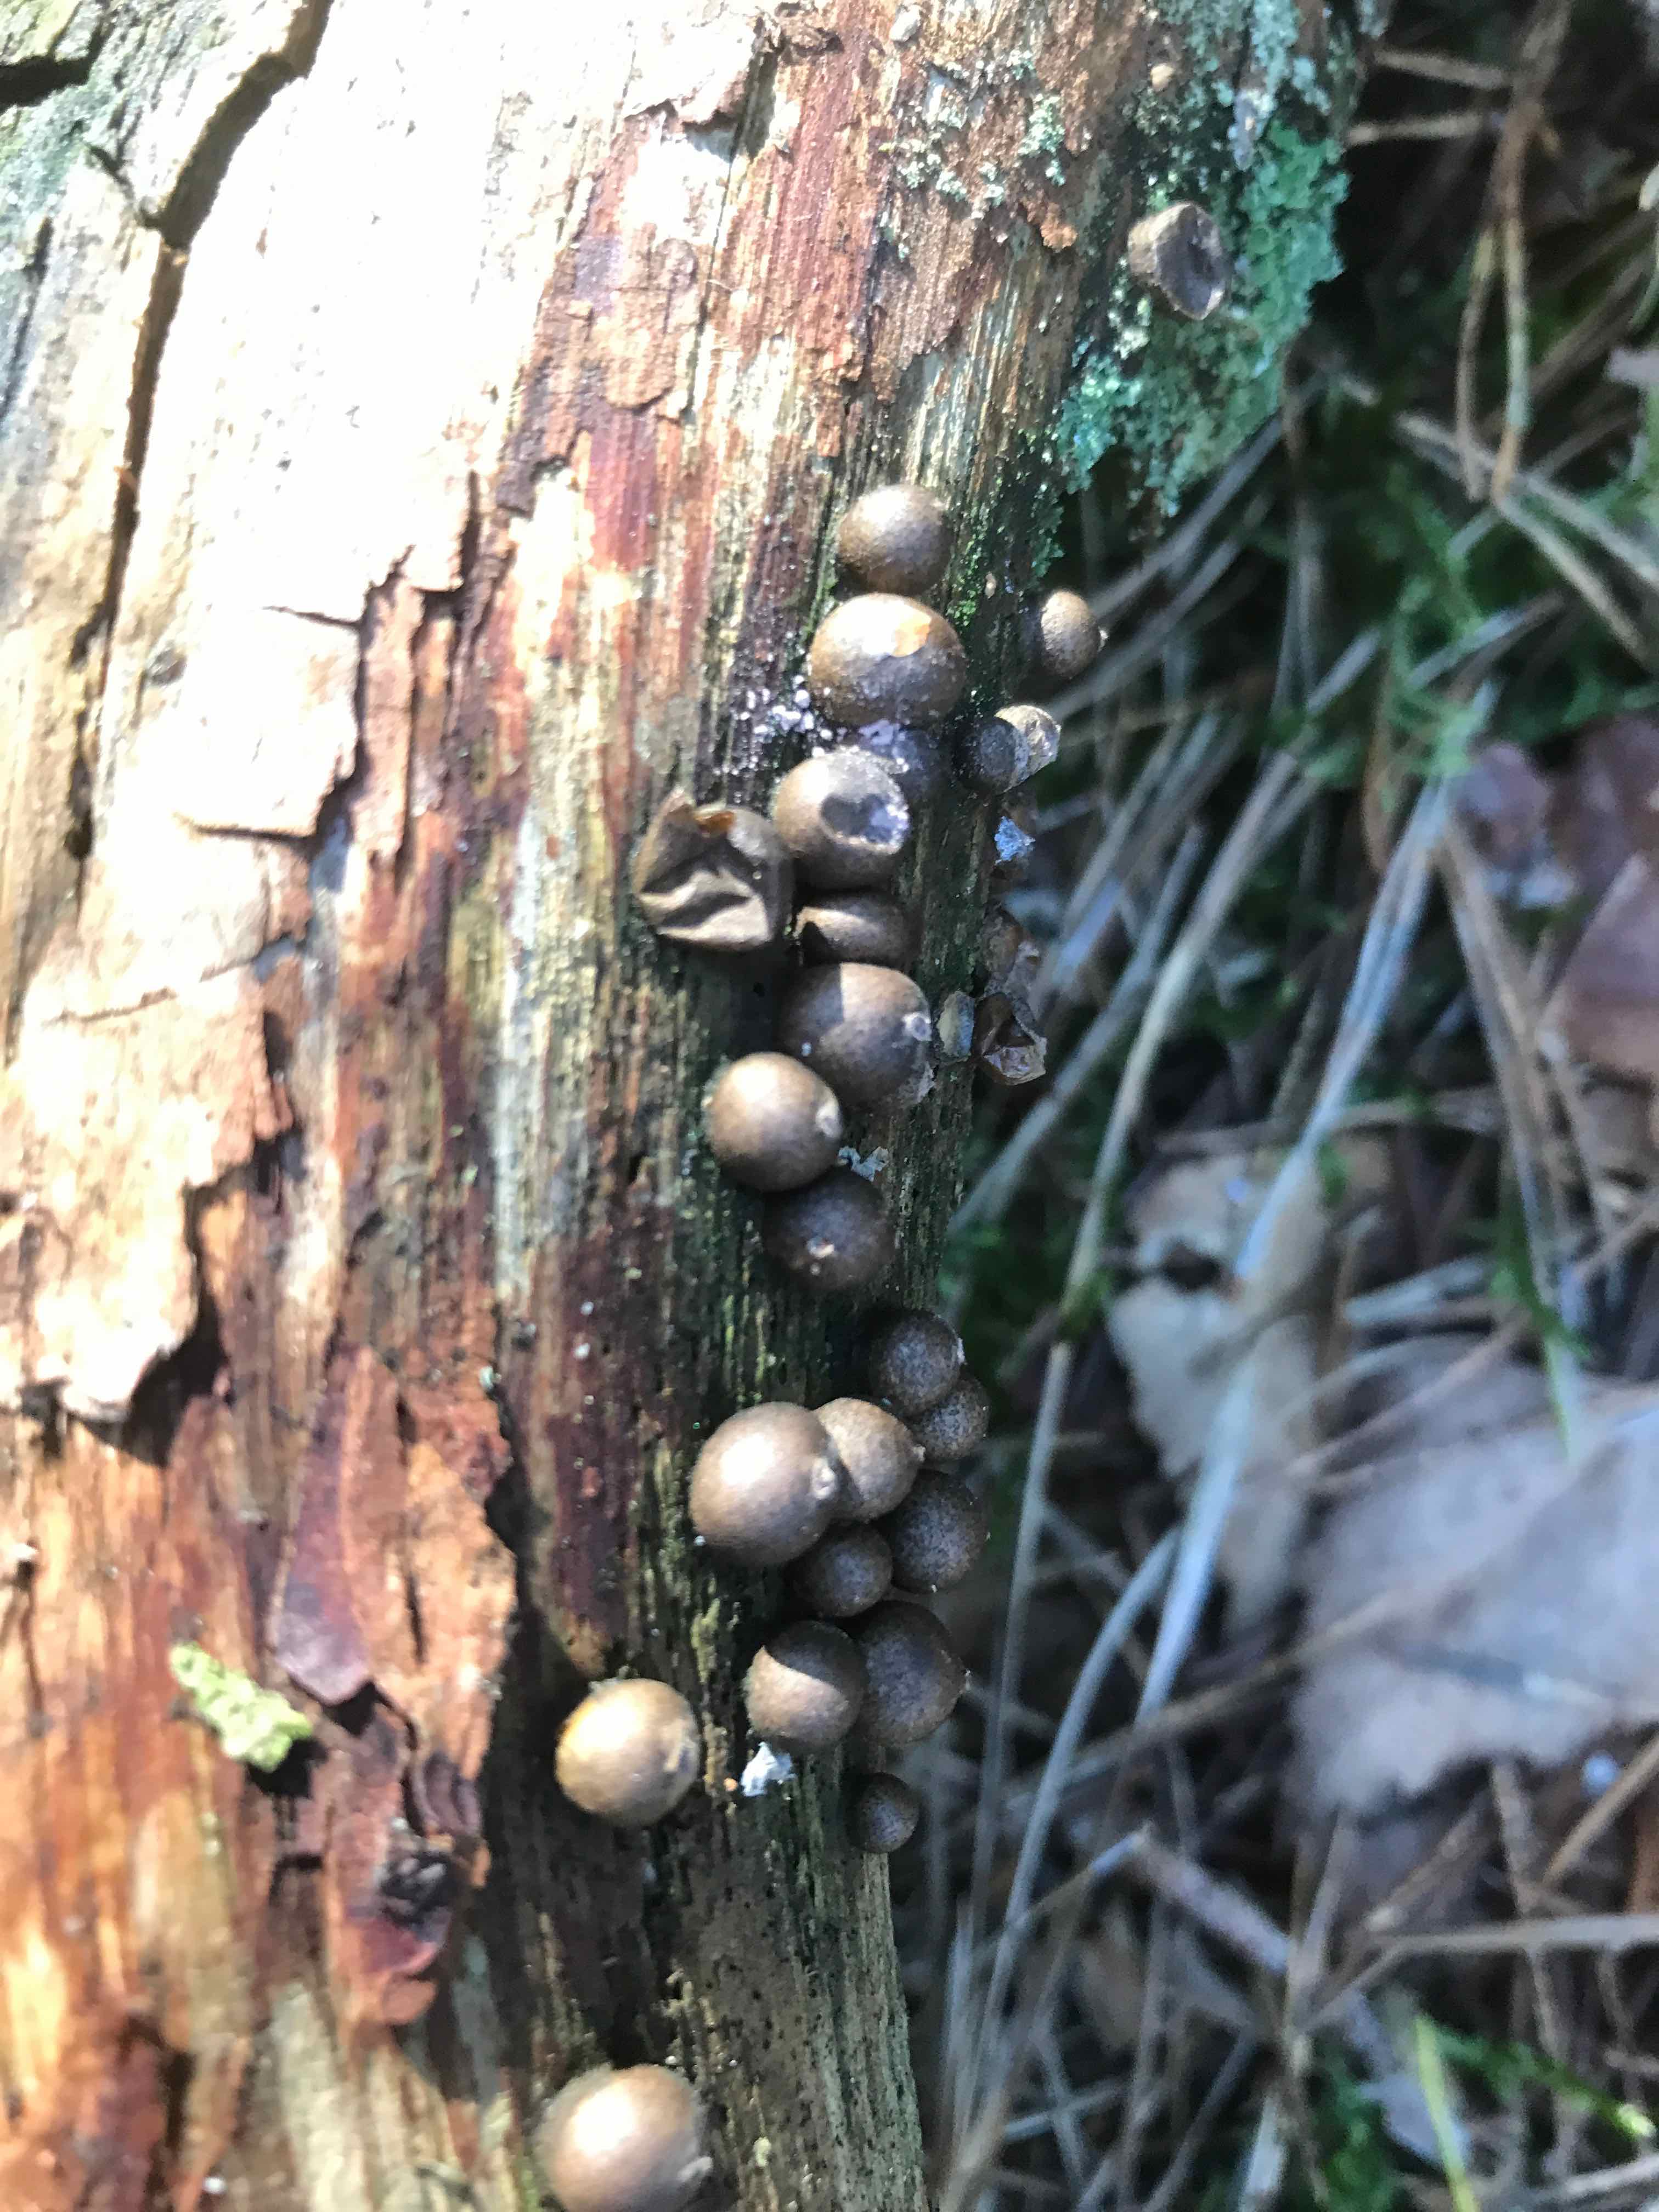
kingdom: Protozoa
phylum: Mycetozoa
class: Myxomycetes
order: Cribrariales
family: Tubiferaceae
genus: Lycogala
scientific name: Lycogala epidendrum
